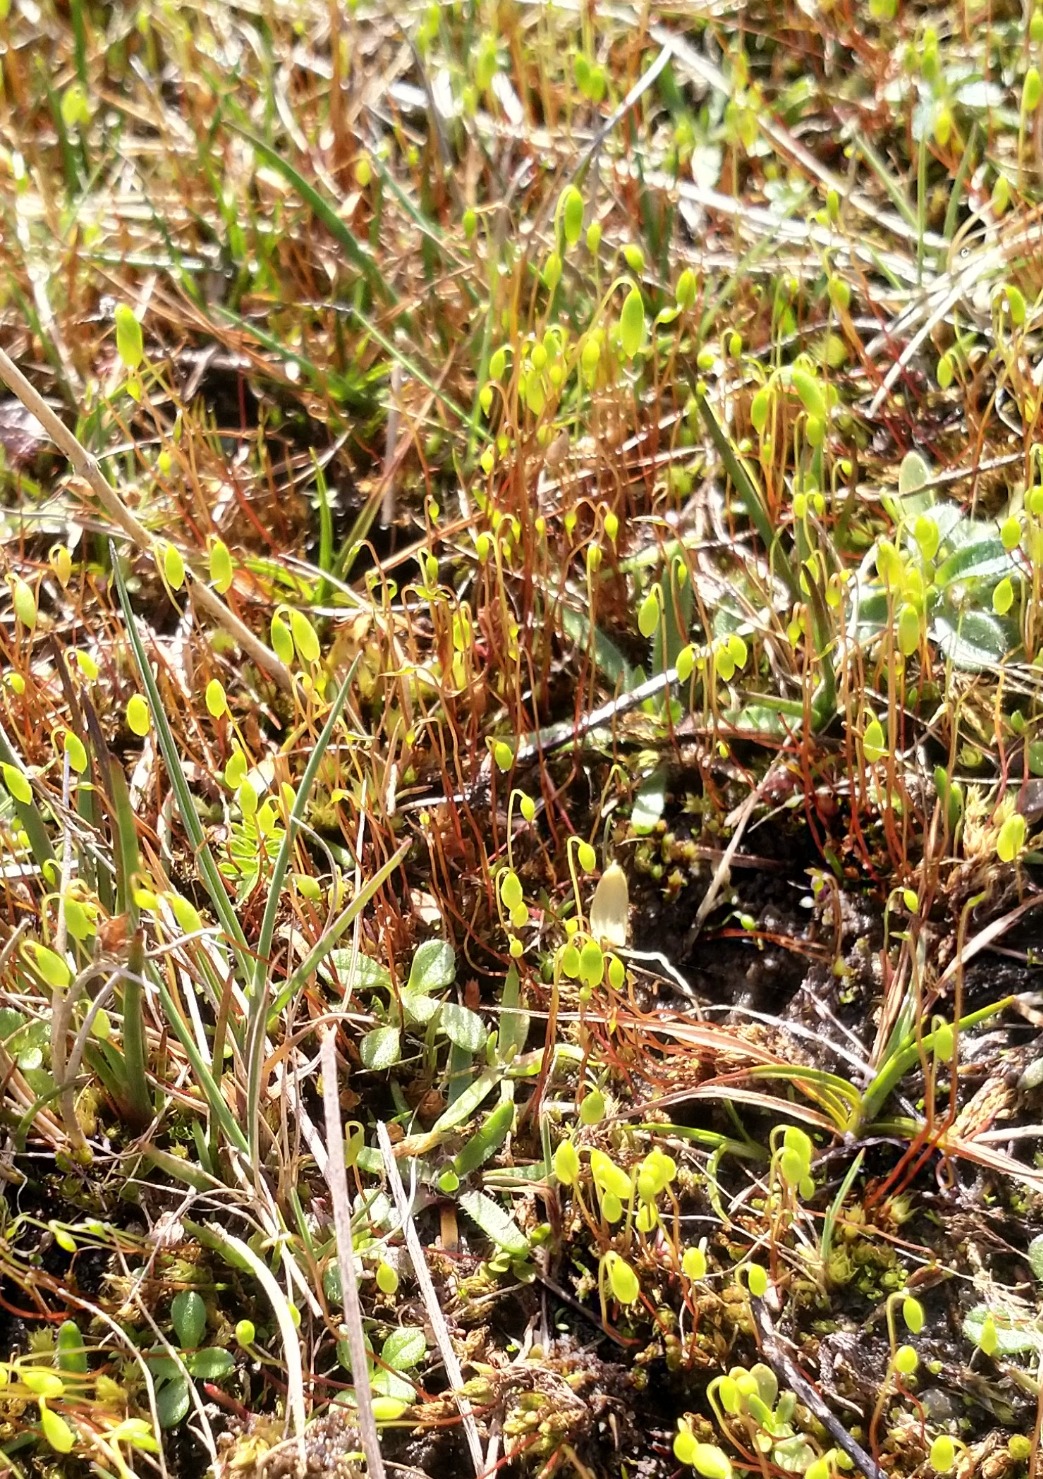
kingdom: Plantae
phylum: Bryophyta
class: Bryopsida
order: Bryales
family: Bryaceae
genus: Bryum
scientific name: Bryum
